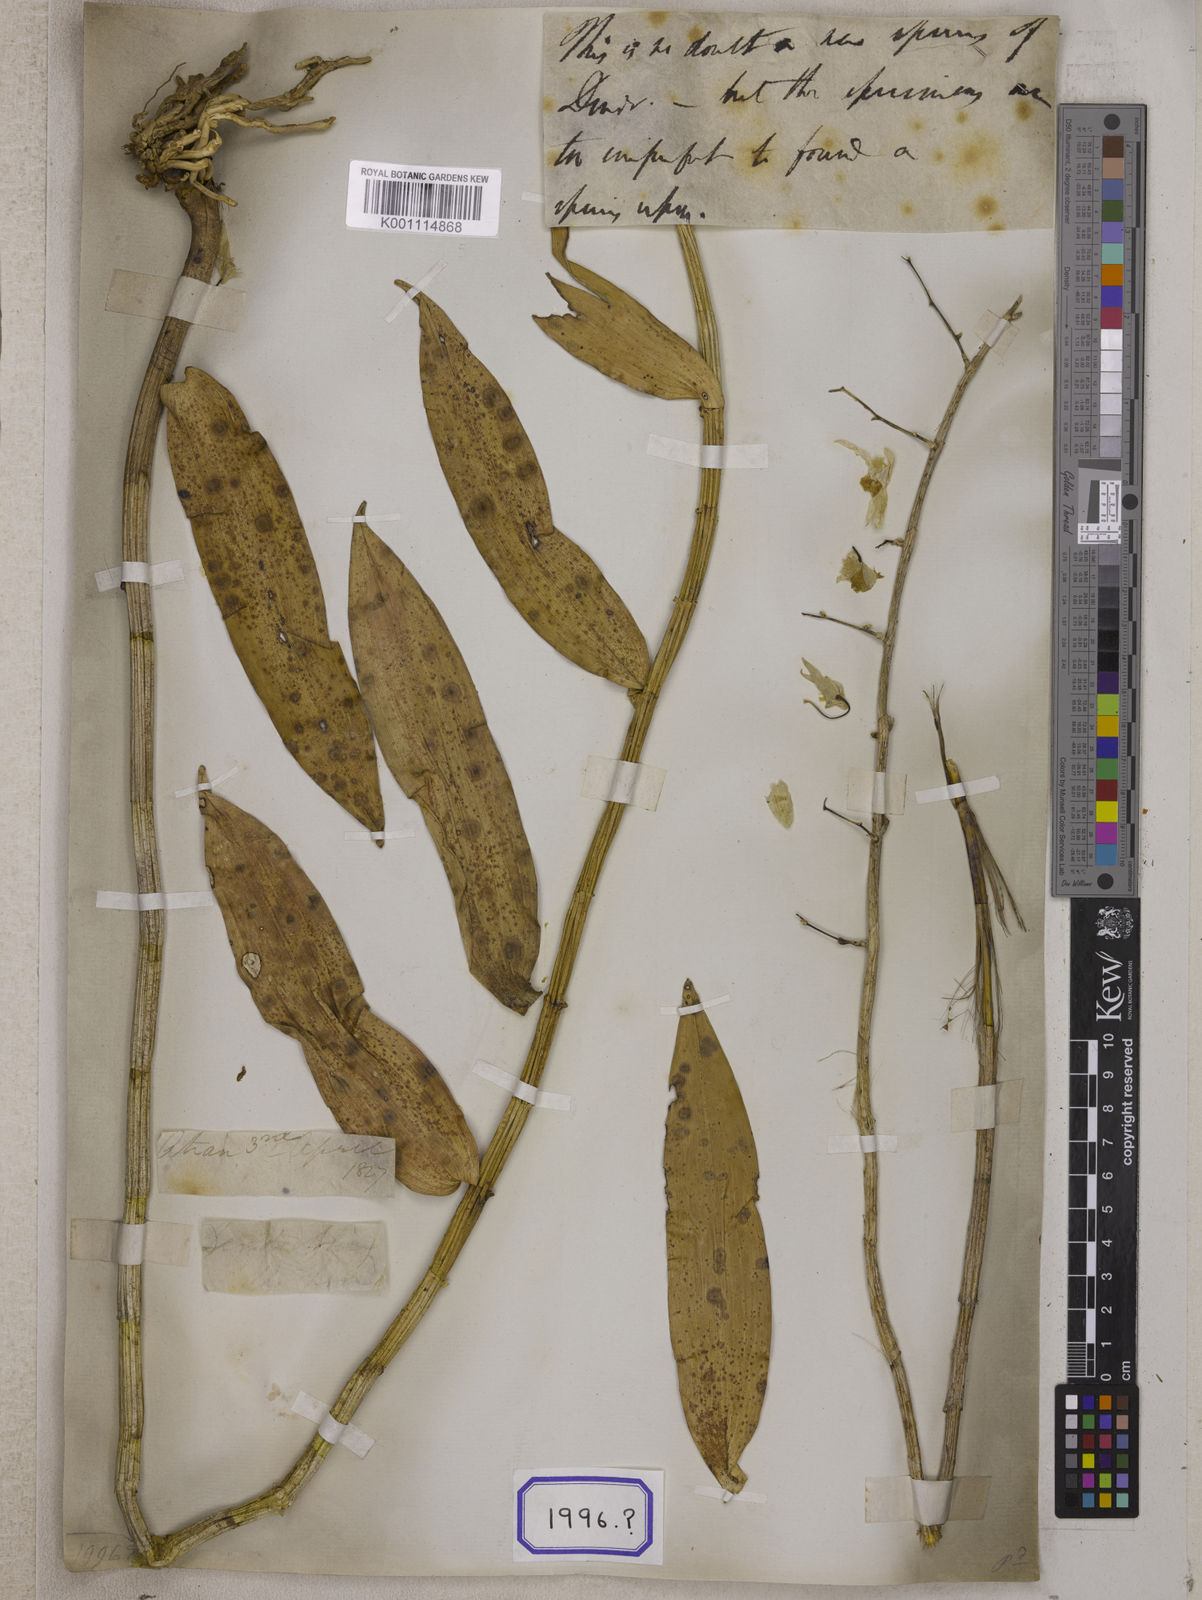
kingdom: Plantae
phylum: Tracheophyta
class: Liliopsida
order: Asparagales
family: Orchidaceae
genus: Dendrobium
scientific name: Dendrobium
